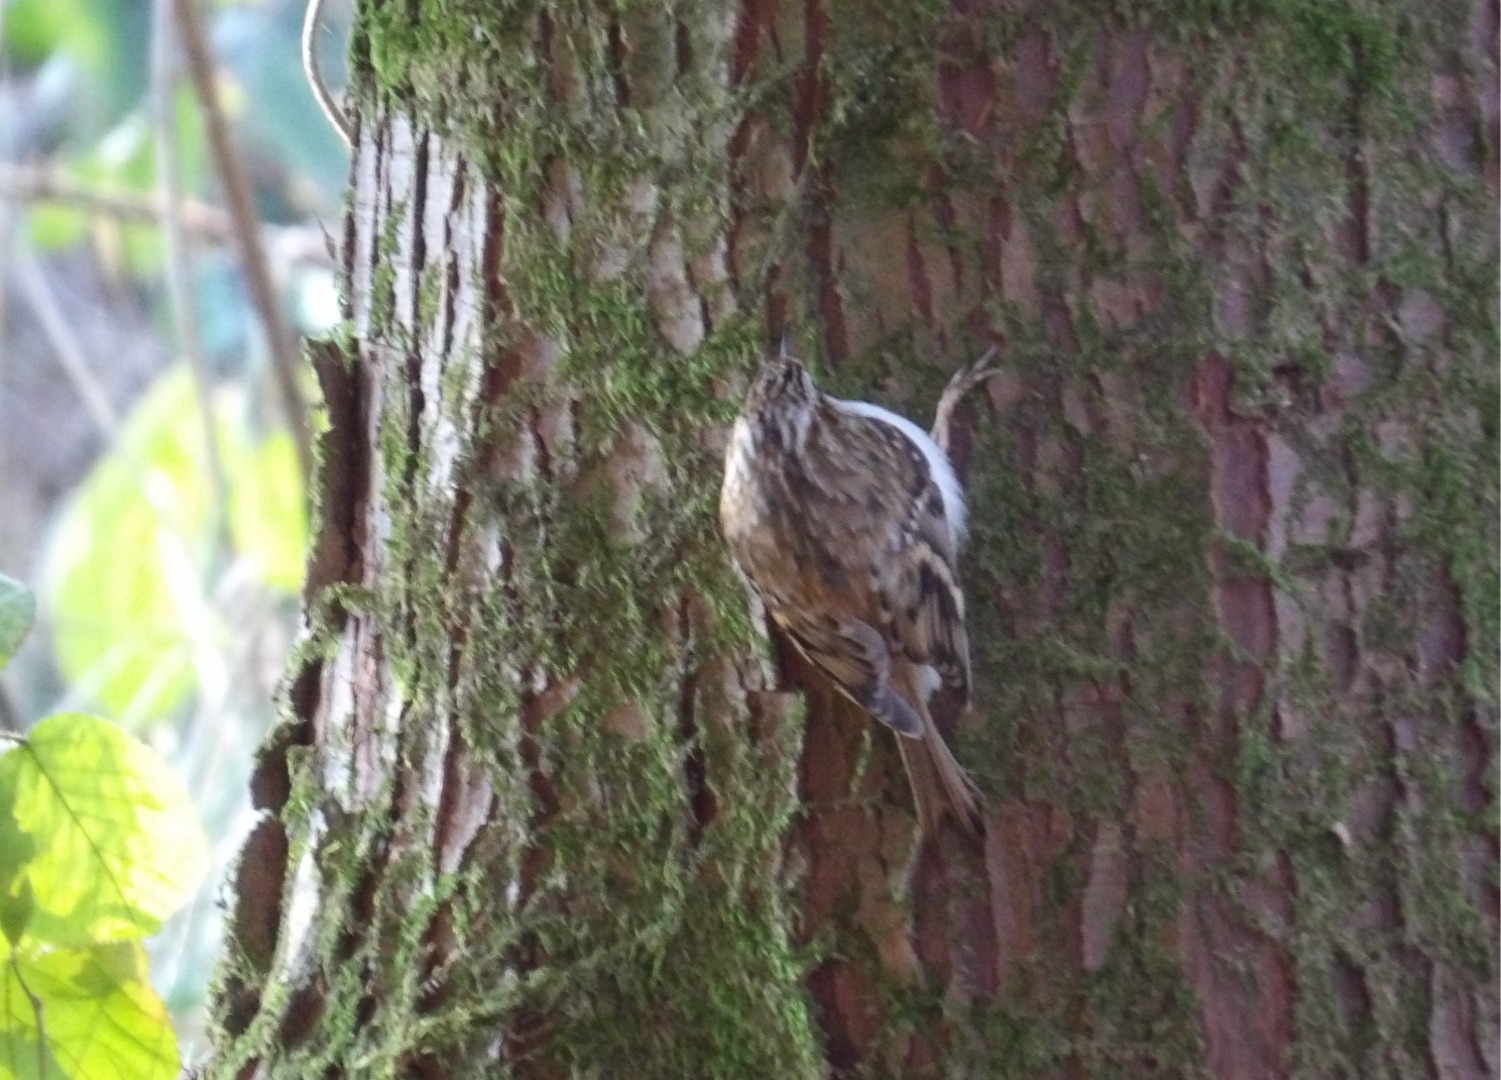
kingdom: Animalia
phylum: Chordata
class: Aves
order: Passeriformes
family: Certhiidae
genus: Certhia
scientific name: Certhia familiaris
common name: Træløber
